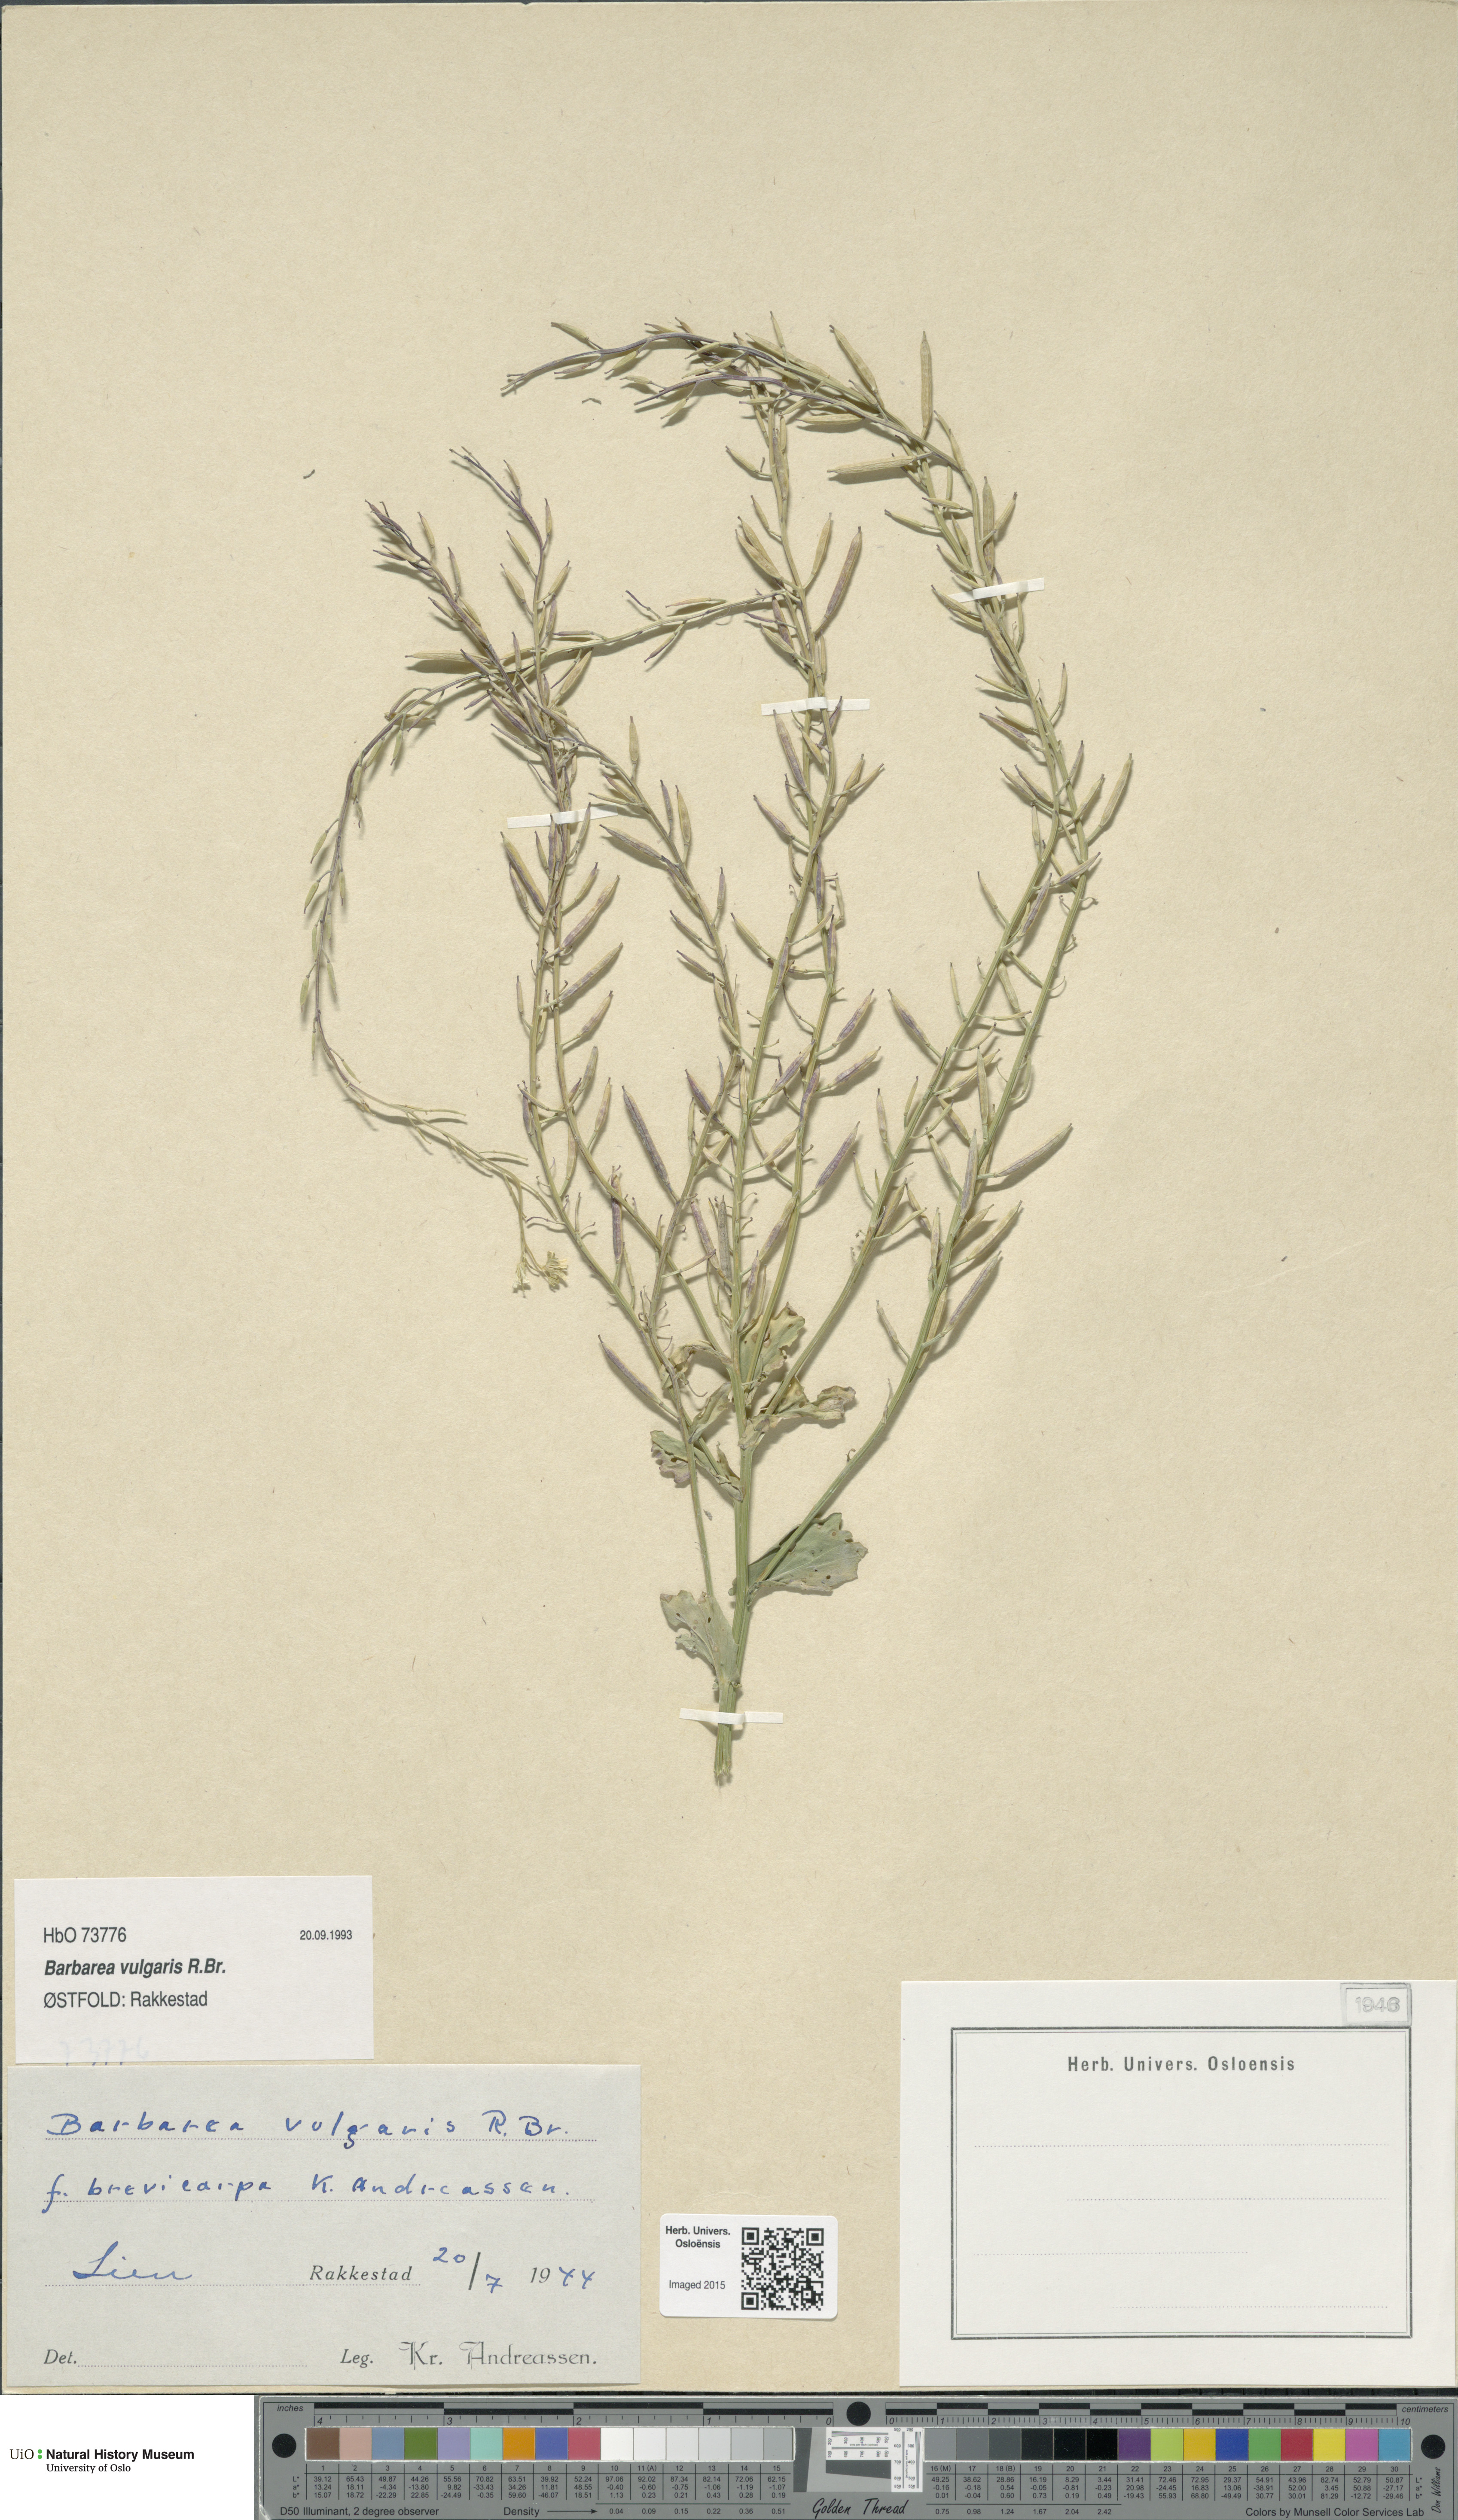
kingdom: Plantae
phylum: Tracheophyta
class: Magnoliopsida
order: Brassicales
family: Brassicaceae
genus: Barbarea
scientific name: Barbarea vulgaris
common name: Cressy-greens
